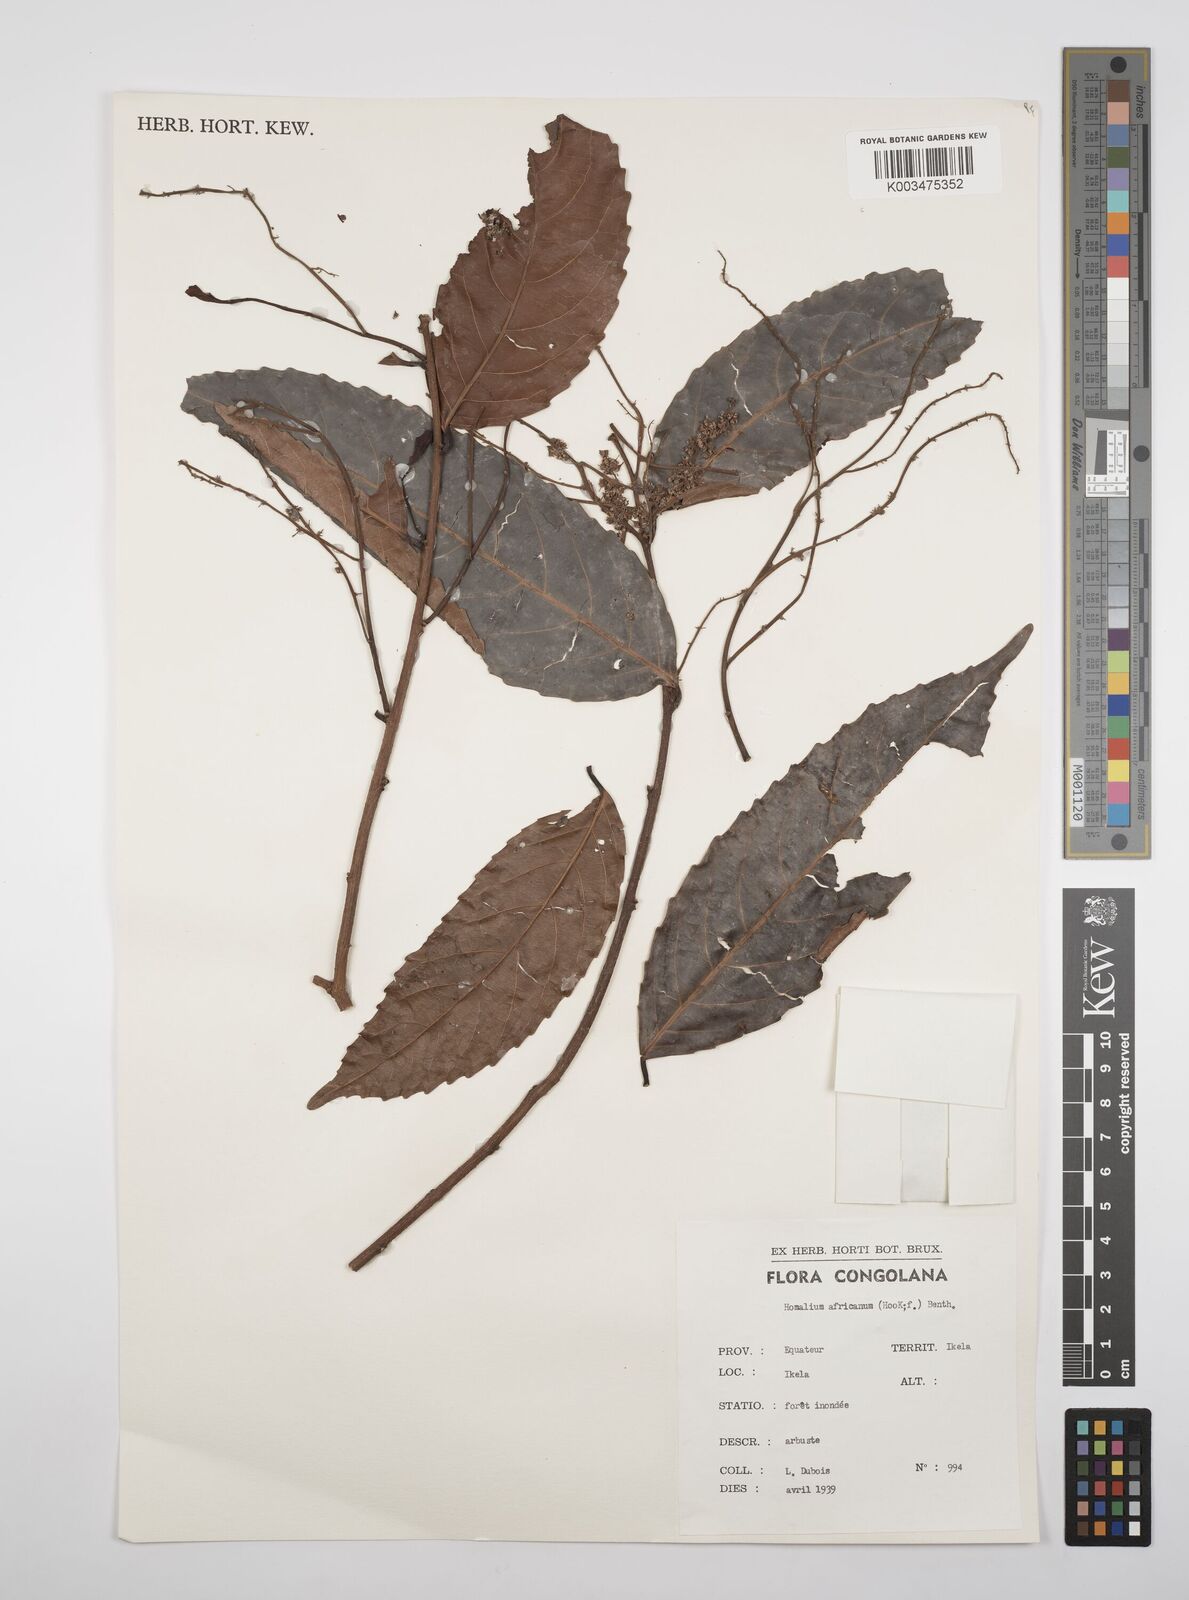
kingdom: Plantae
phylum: Tracheophyta
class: Magnoliopsida
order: Malpighiales
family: Salicaceae
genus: Homalium
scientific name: Homalium africanum
